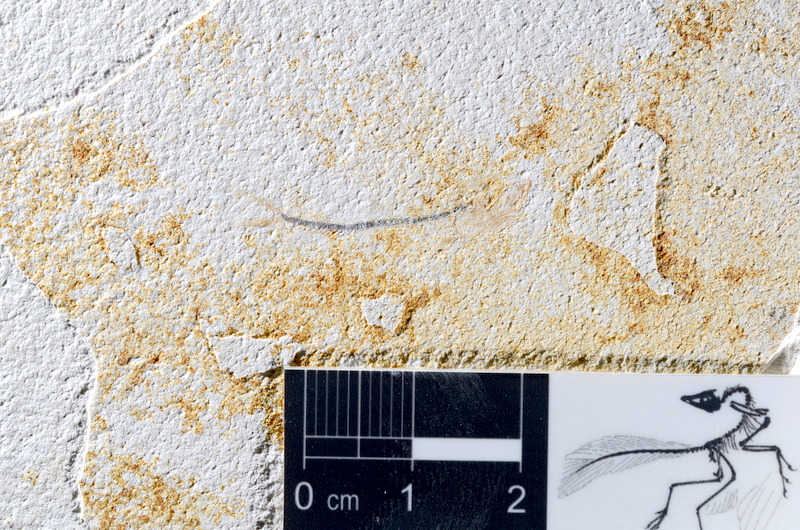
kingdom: Animalia
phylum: Chordata
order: Salmoniformes
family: Orthogonikleithridae
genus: Orthogonikleithrus
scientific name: Orthogonikleithrus hoelli
